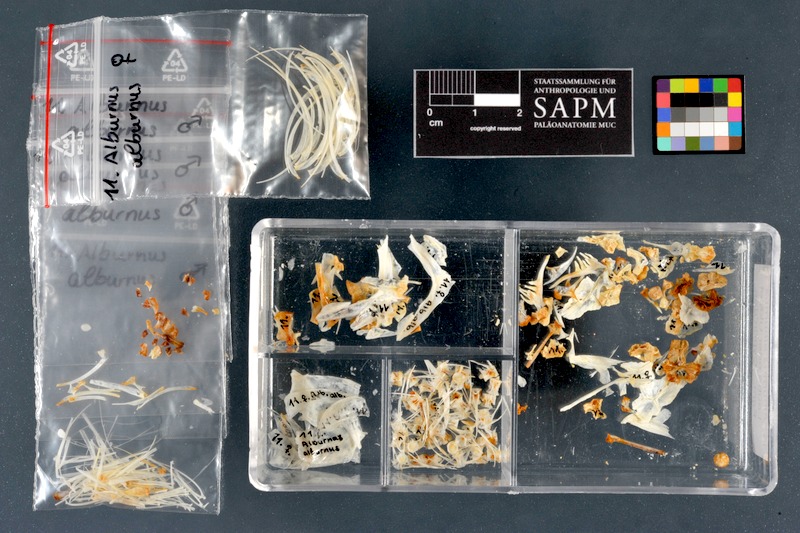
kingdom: Animalia
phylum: Chordata
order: Cypriniformes
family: Cyprinidae
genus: Alburnus
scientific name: Alburnus alburnus
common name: Bleak
